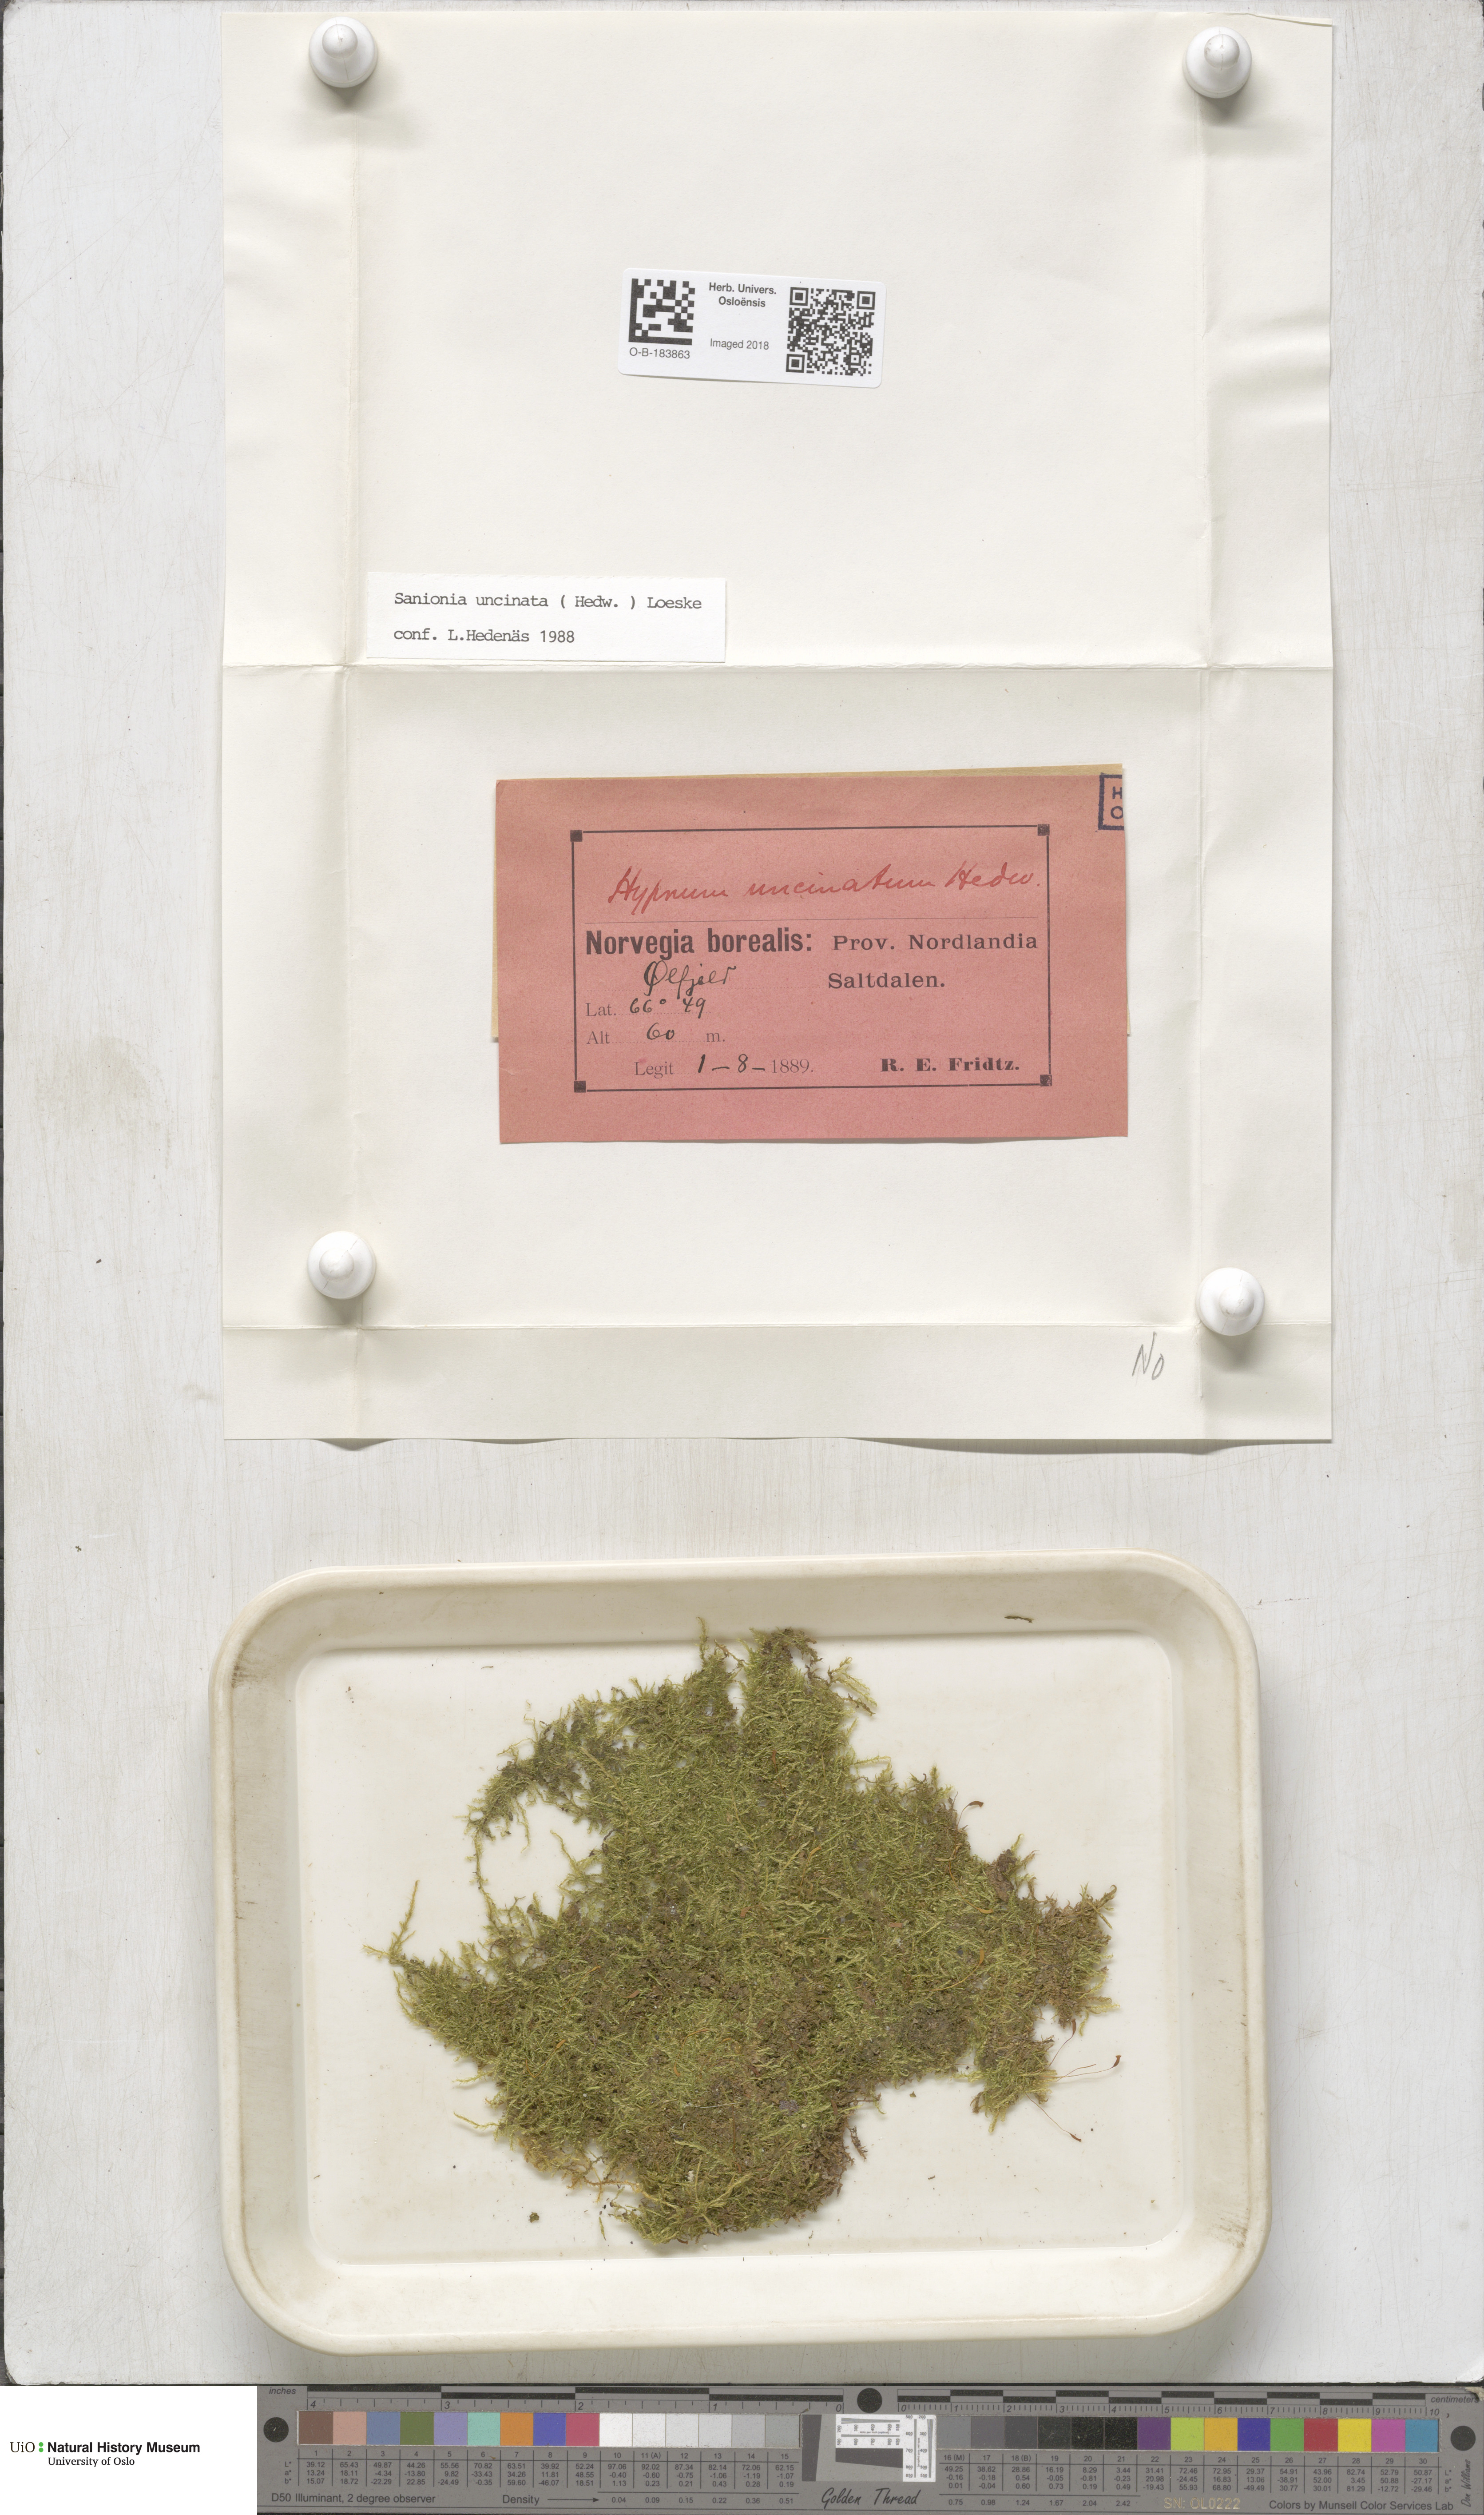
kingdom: Plantae
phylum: Bryophyta
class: Bryopsida
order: Hypnales
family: Scorpidiaceae
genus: Sanionia
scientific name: Sanionia uncinata
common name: Sickle moss
